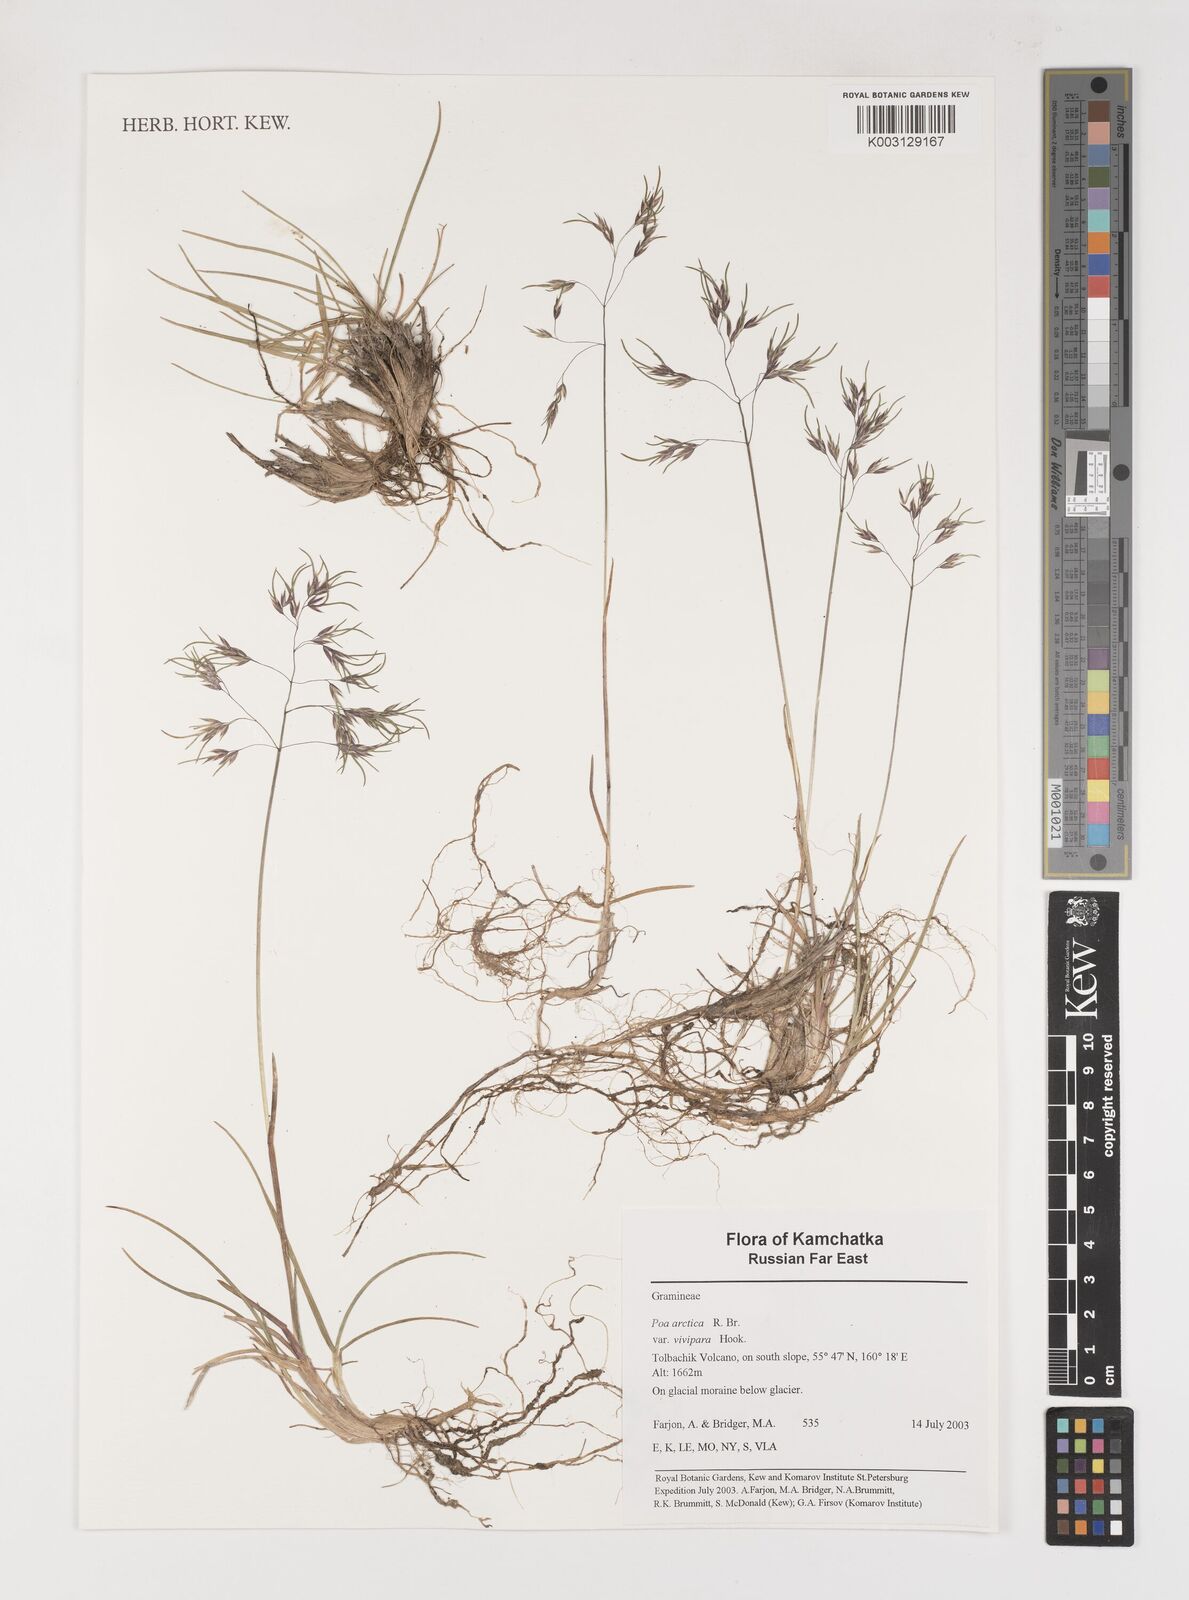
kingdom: Plantae
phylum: Tracheophyta
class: Liliopsida
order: Poales
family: Poaceae
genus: Poa
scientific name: Poa arctica
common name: Arctic bluegrass
